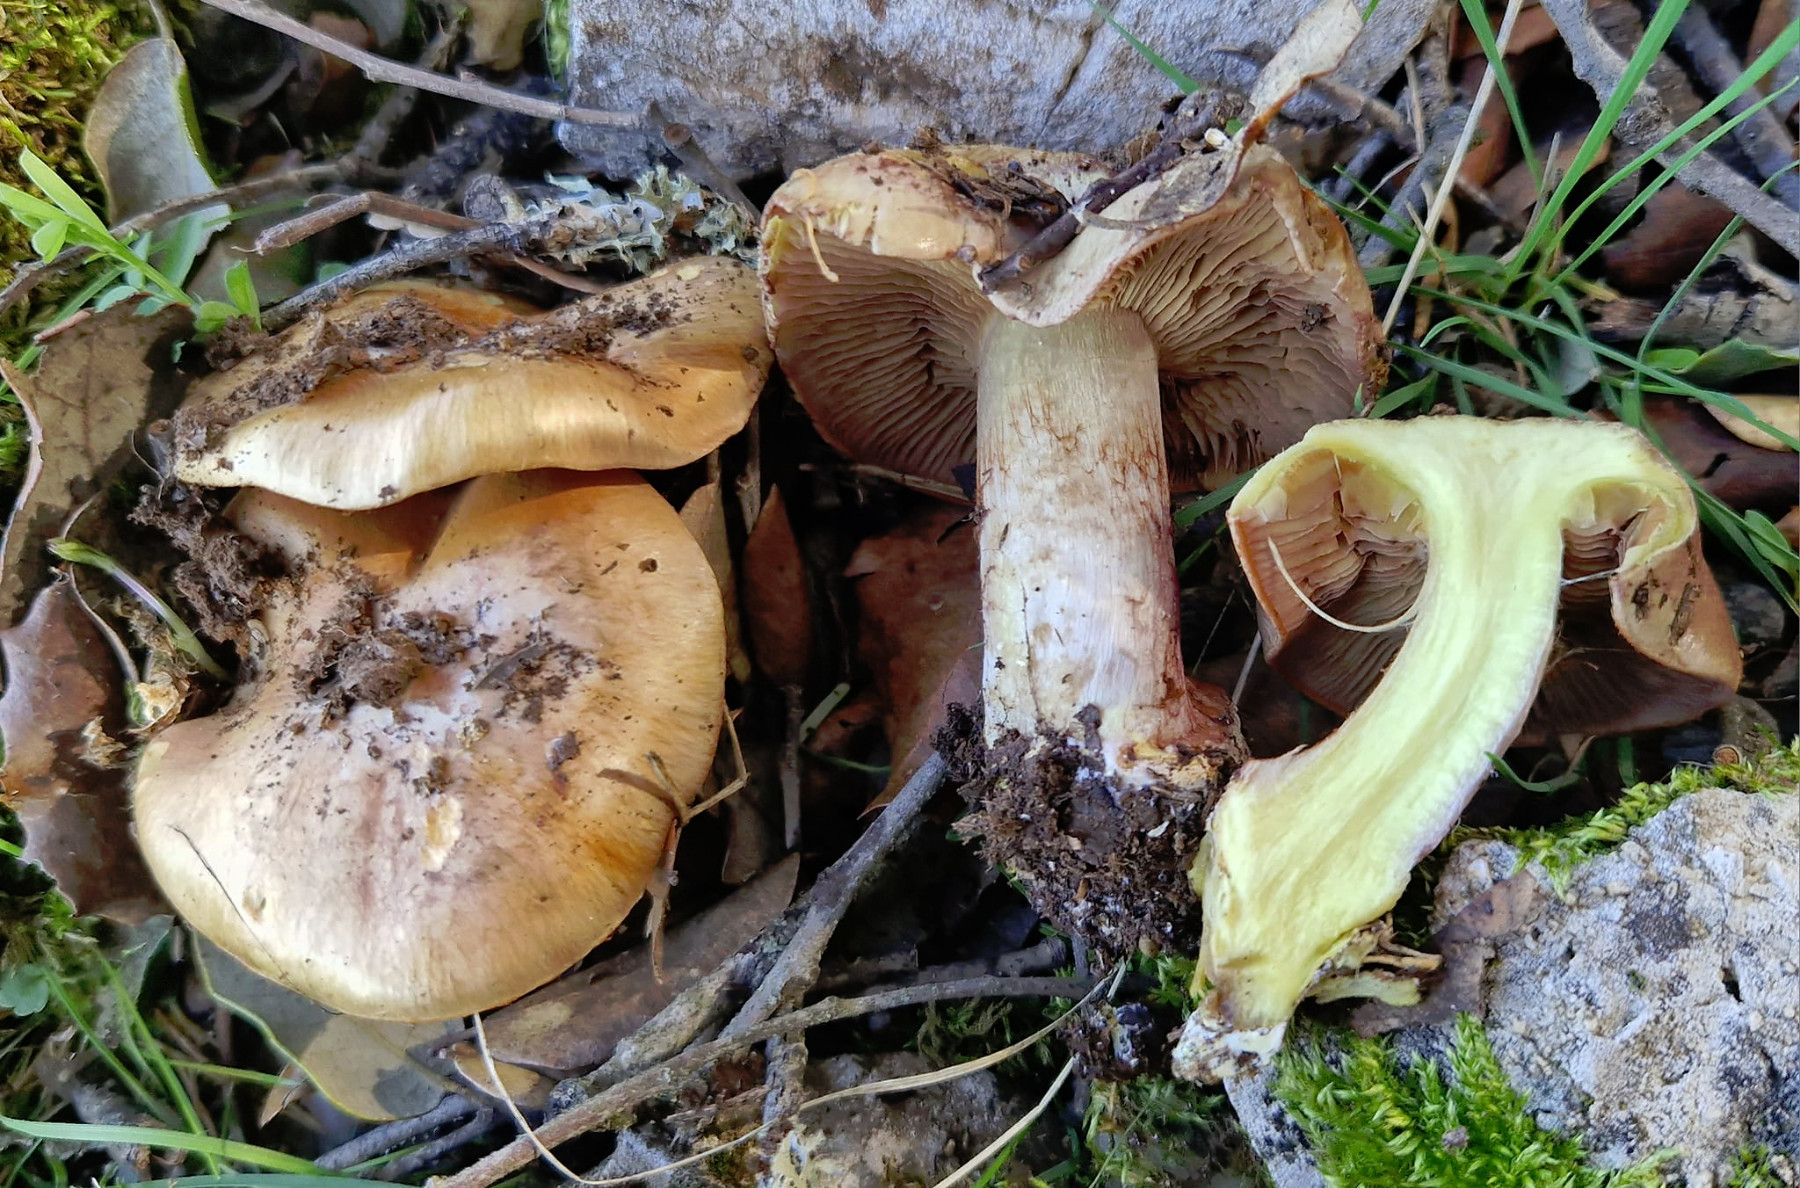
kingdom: Fungi
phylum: Basidiomycota
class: Agaricomycetes
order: Agaricales
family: Cortinariaceae
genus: Calonarius
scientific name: Calonarius splendificus
